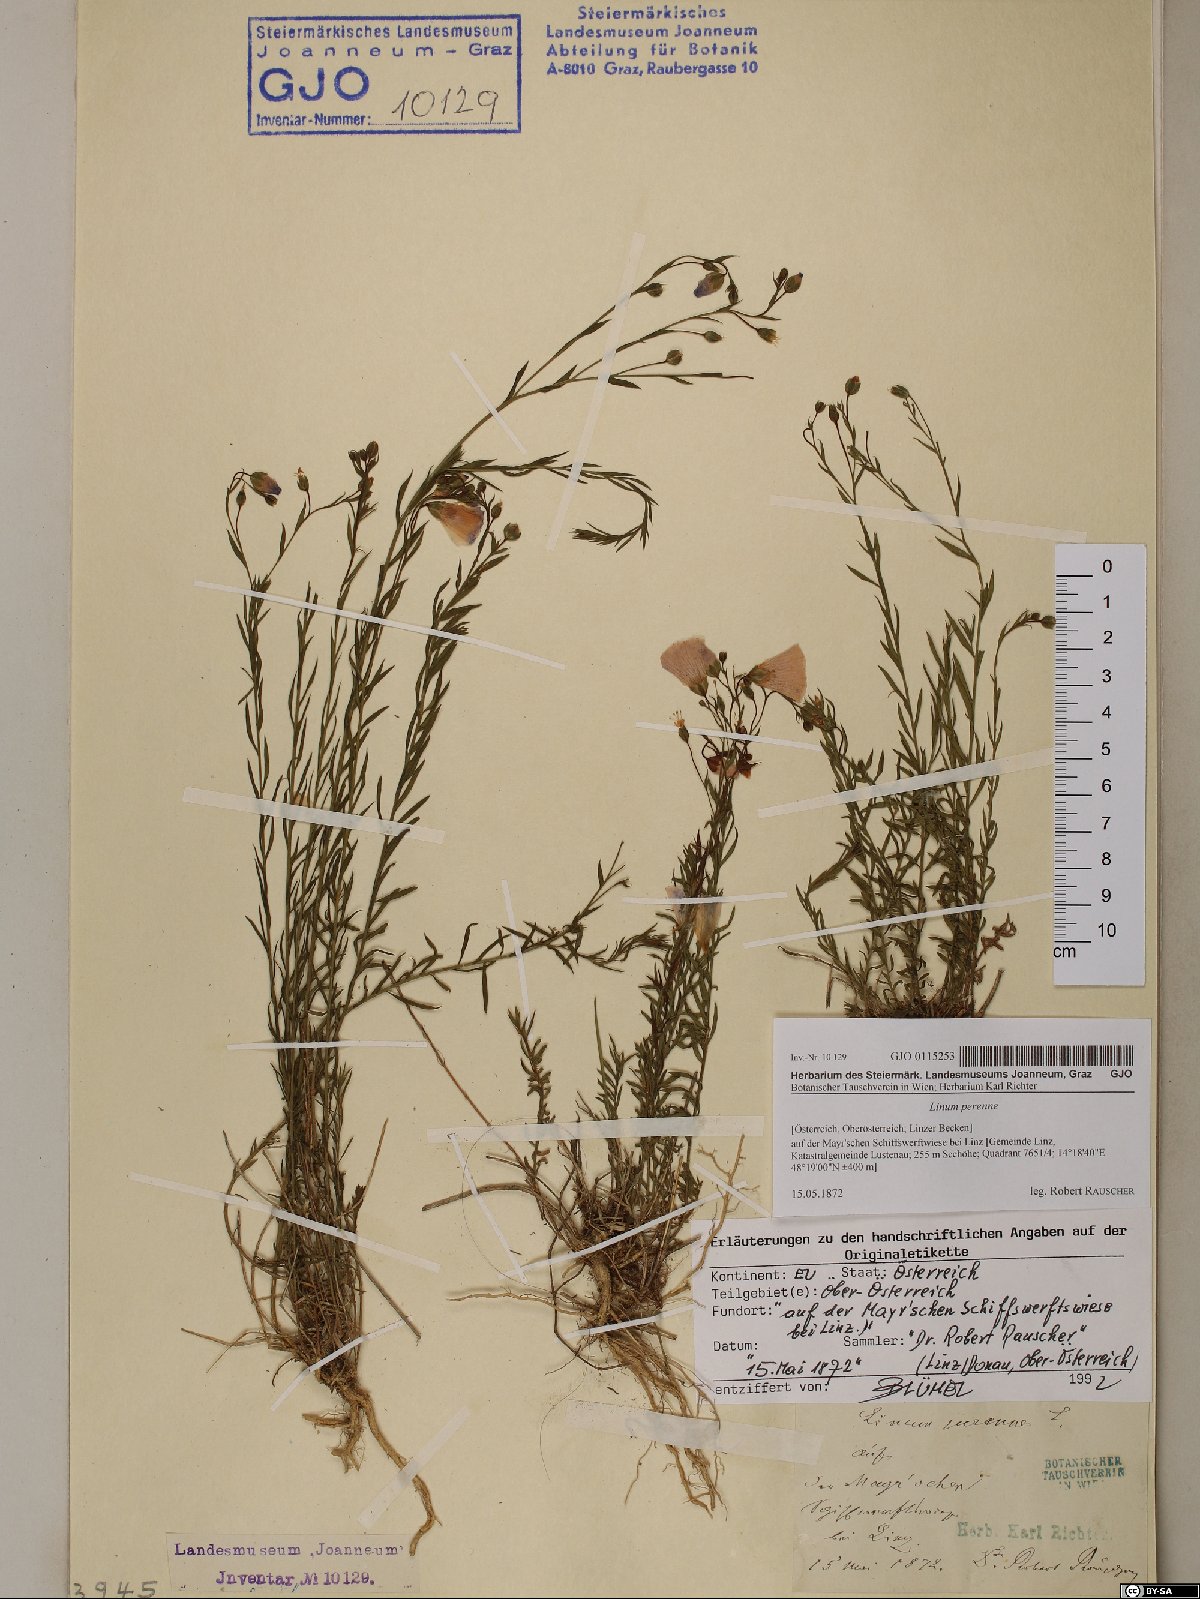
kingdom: Plantae
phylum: Tracheophyta
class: Magnoliopsida
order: Malpighiales
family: Linaceae
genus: Linum
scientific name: Linum perenne
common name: Blue flax
